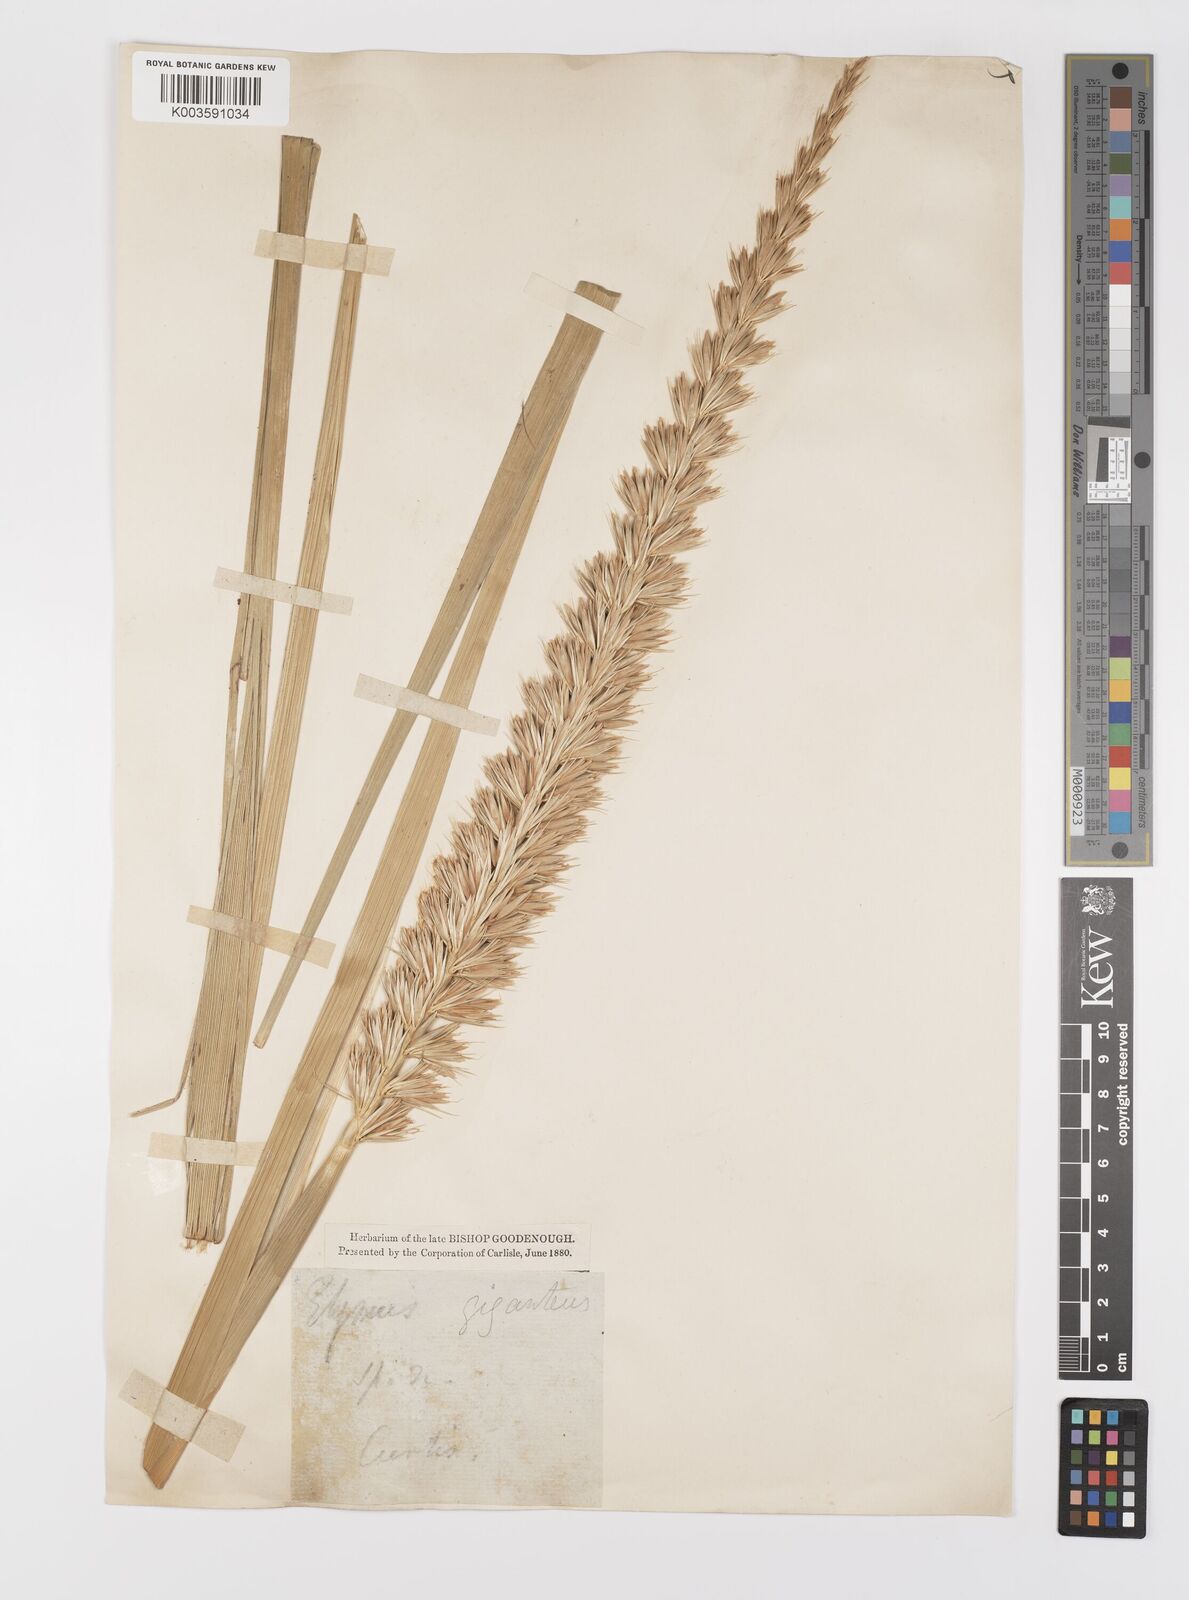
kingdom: Plantae
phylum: Tracheophyta
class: Liliopsida
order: Poales
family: Poaceae
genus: Leymus
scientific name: Leymus racemosus
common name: Mammoth wildrye
